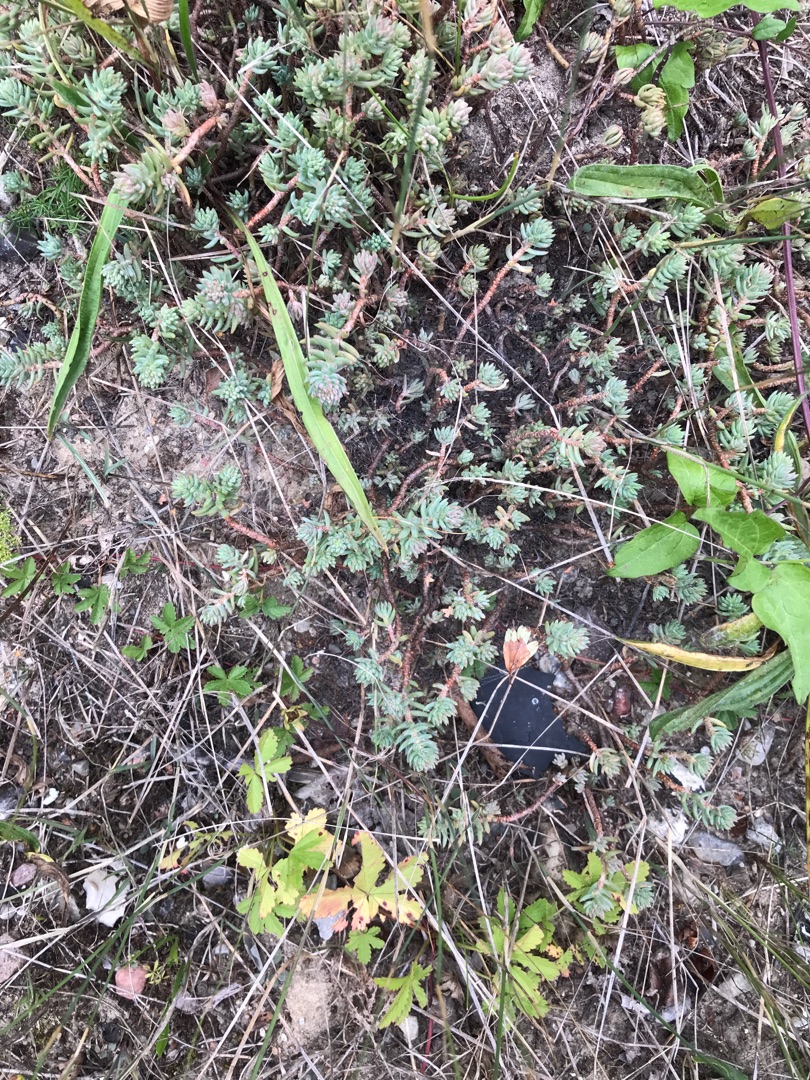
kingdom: Plantae
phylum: Tracheophyta
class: Magnoliopsida
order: Saxifragales
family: Crassulaceae
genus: Petrosedum
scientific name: Petrosedum rupestre
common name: Bjerg-stenurt
